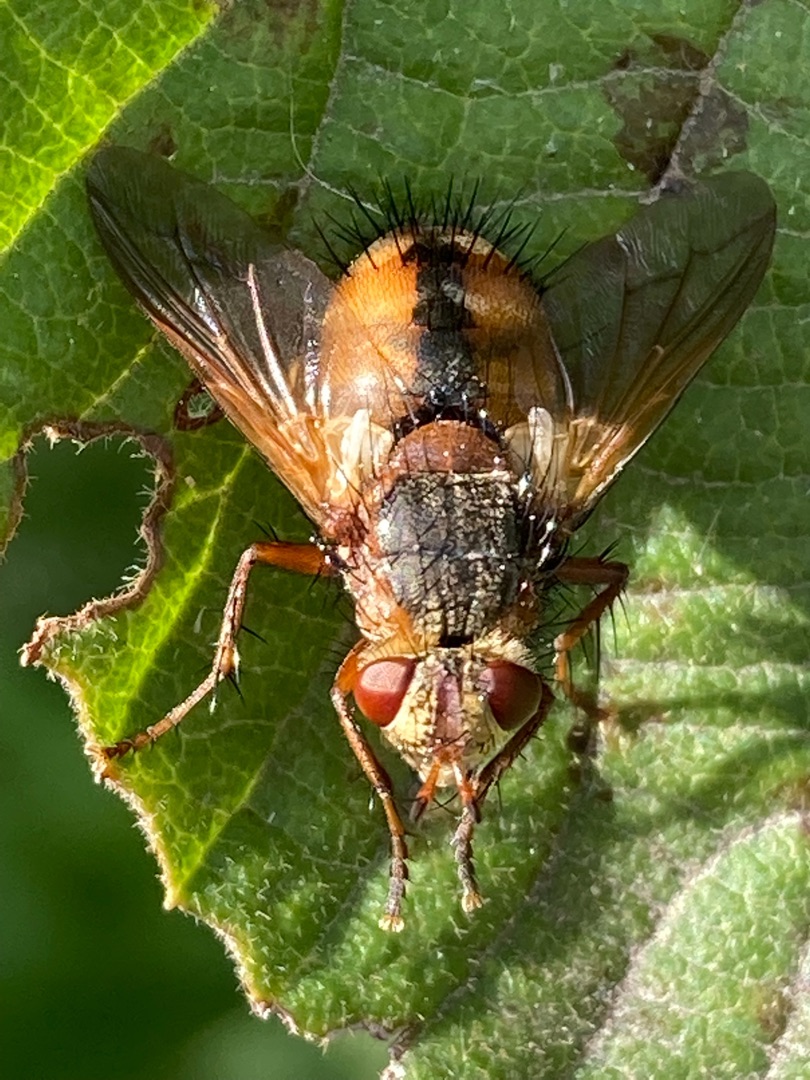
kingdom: Animalia
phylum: Arthropoda
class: Insecta
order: Diptera
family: Tachinidae
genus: Tachina
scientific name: Tachina fera
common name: Mellemfluen oskar
